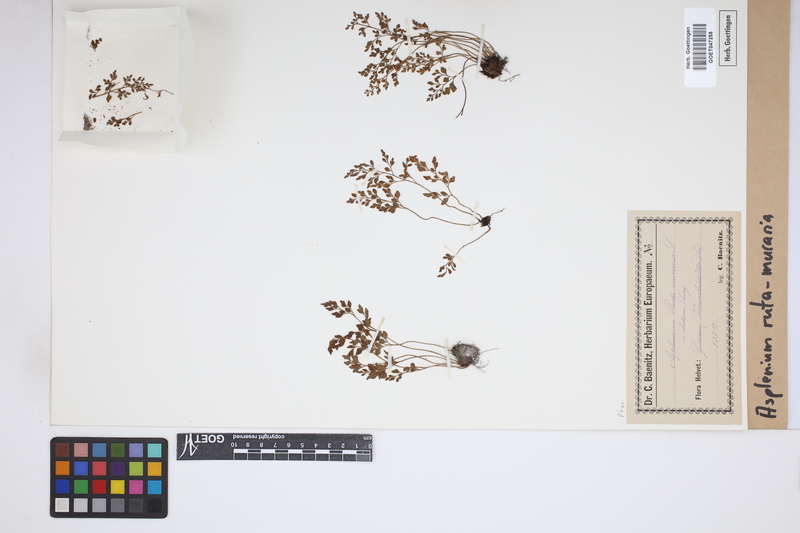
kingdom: Plantae
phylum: Tracheophyta
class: Polypodiopsida
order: Polypodiales
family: Aspleniaceae
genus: Asplenium
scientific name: Asplenium ruta-muraria
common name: Wall-rue
